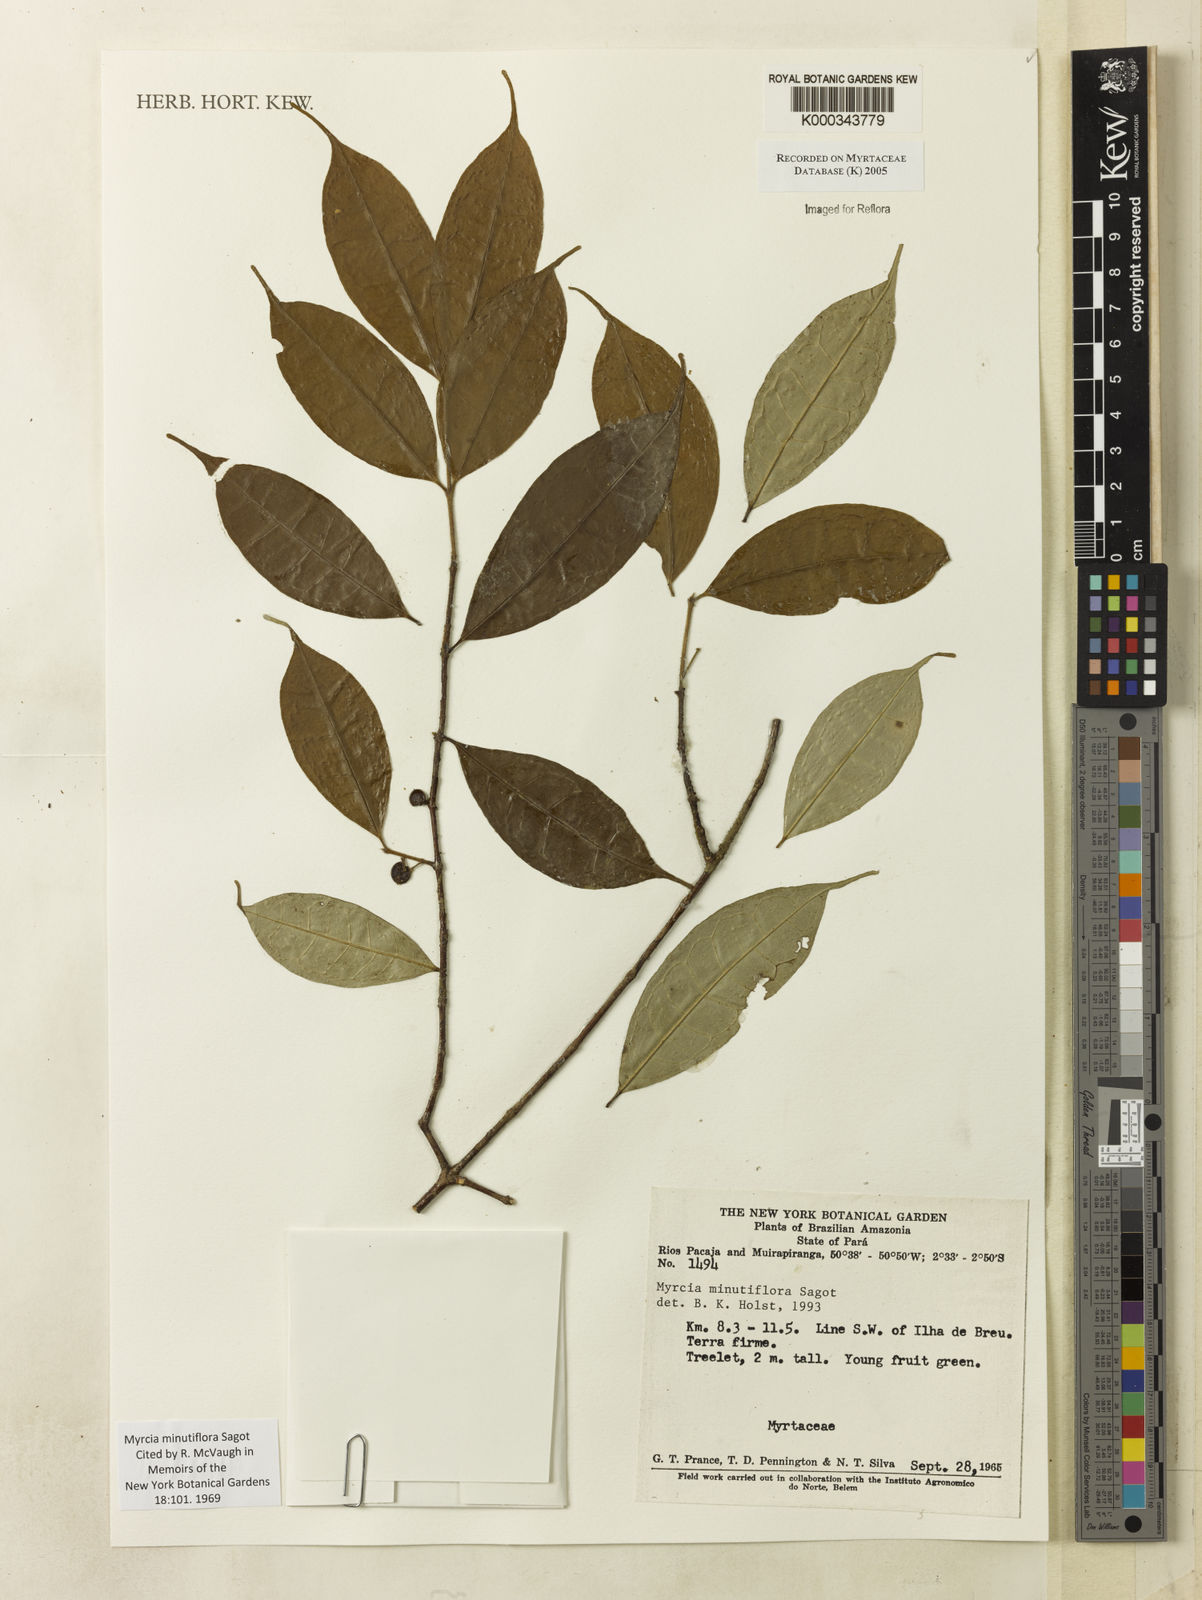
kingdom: Plantae
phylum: Tracheophyta
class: Magnoliopsida
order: Myrtales
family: Myrtaceae
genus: Myrcia
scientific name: Myrcia minutiflora
